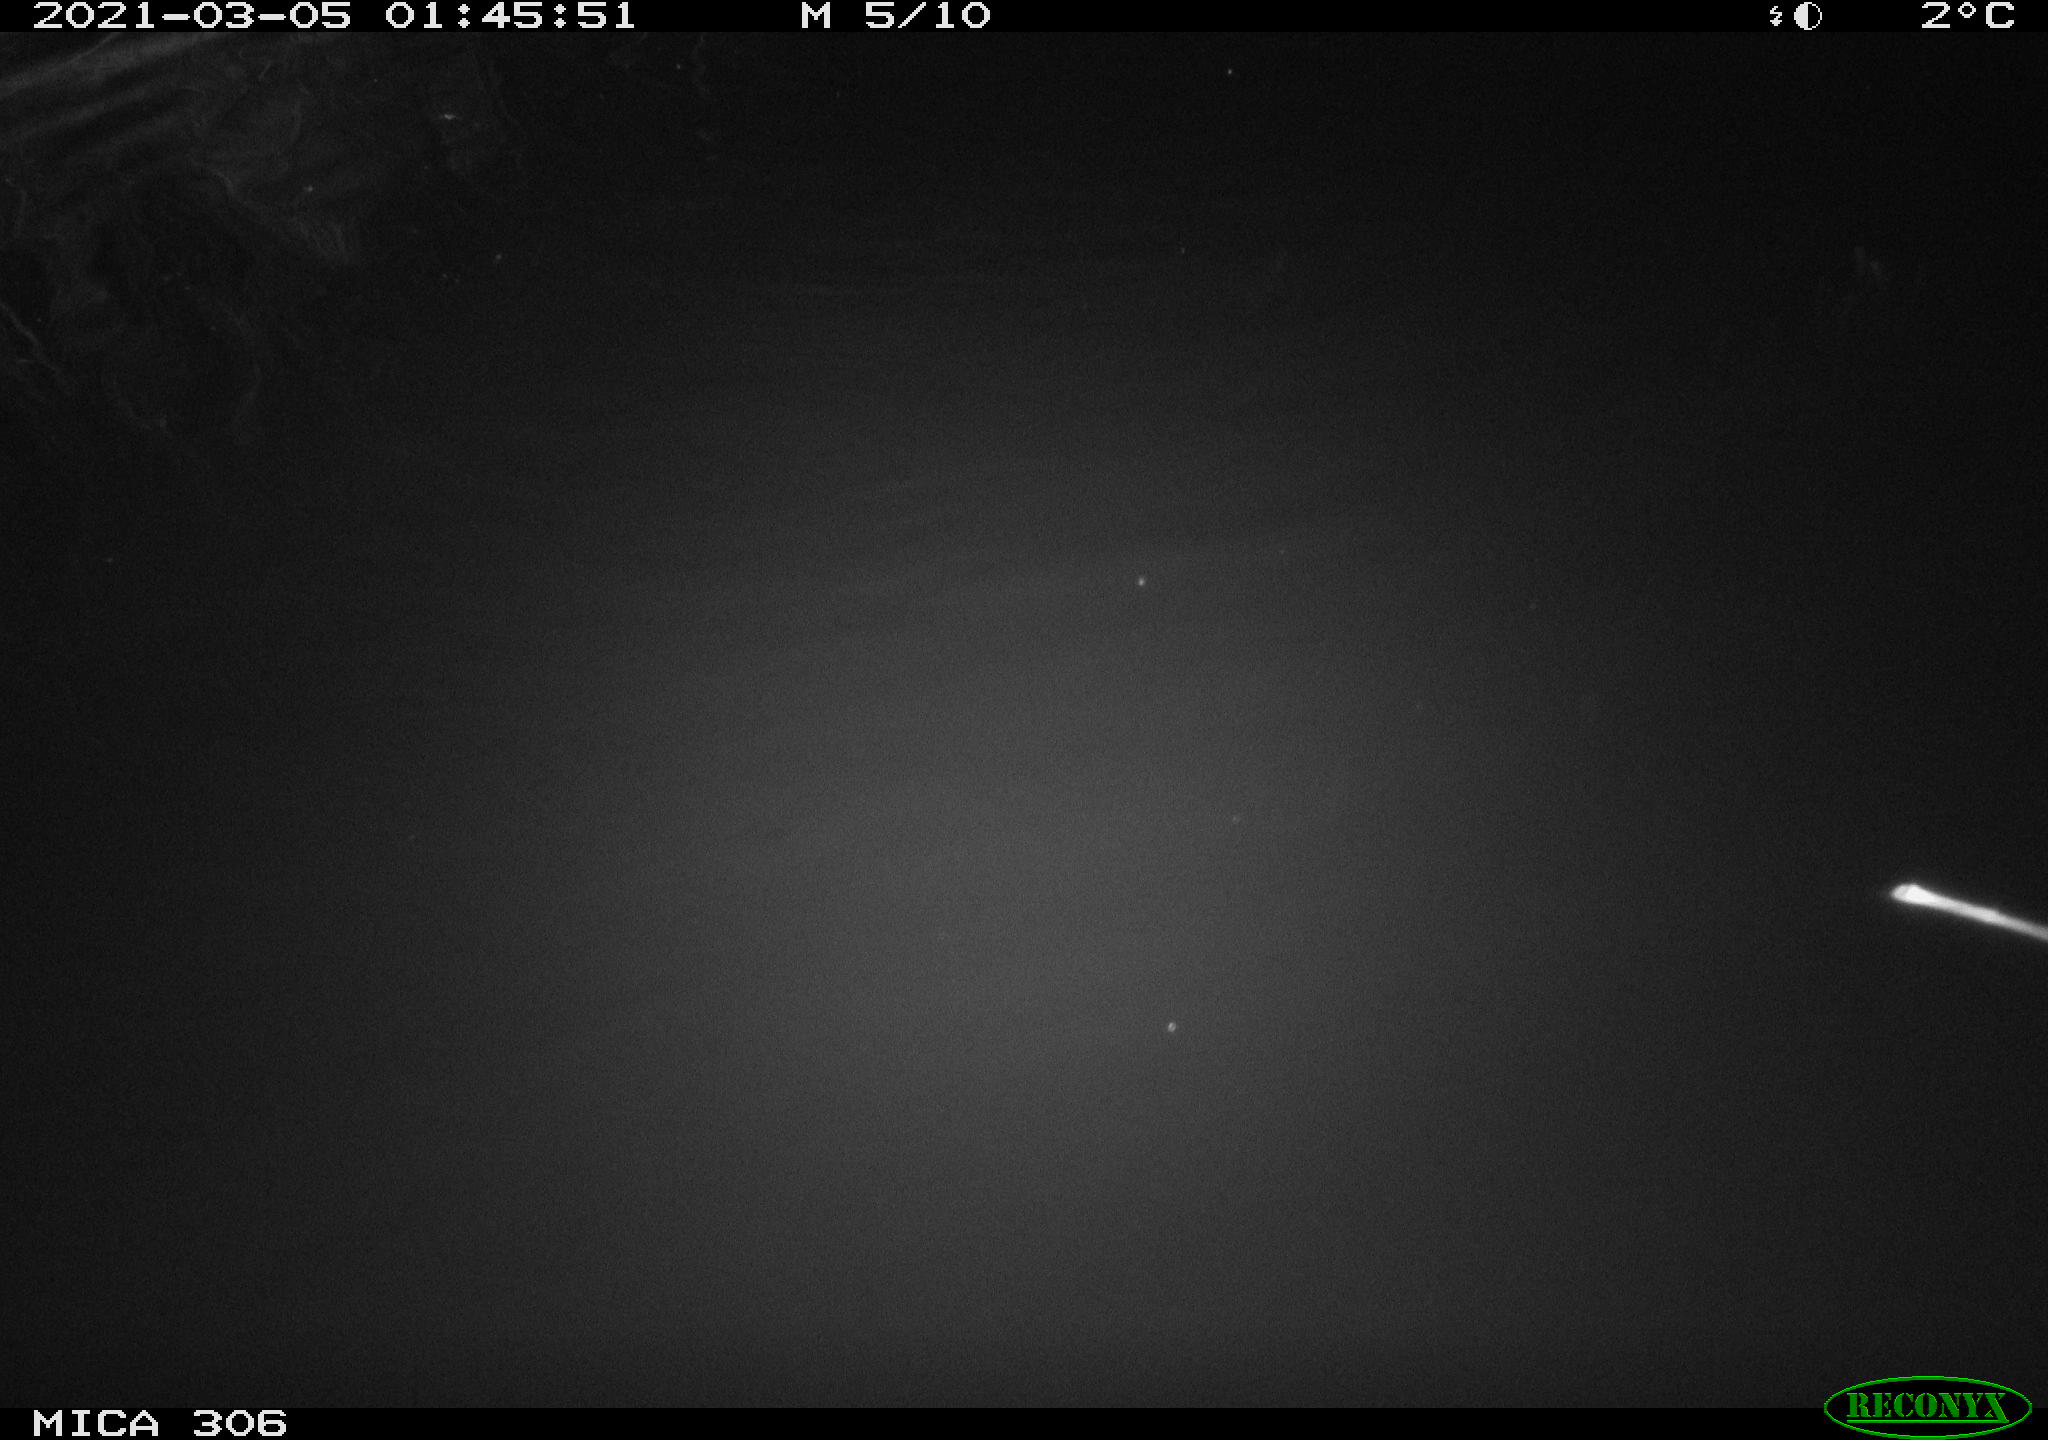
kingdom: Animalia
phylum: Chordata
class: Mammalia
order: Rodentia
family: Cricetidae
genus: Ondatra
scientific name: Ondatra zibethicus
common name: Muskrat
